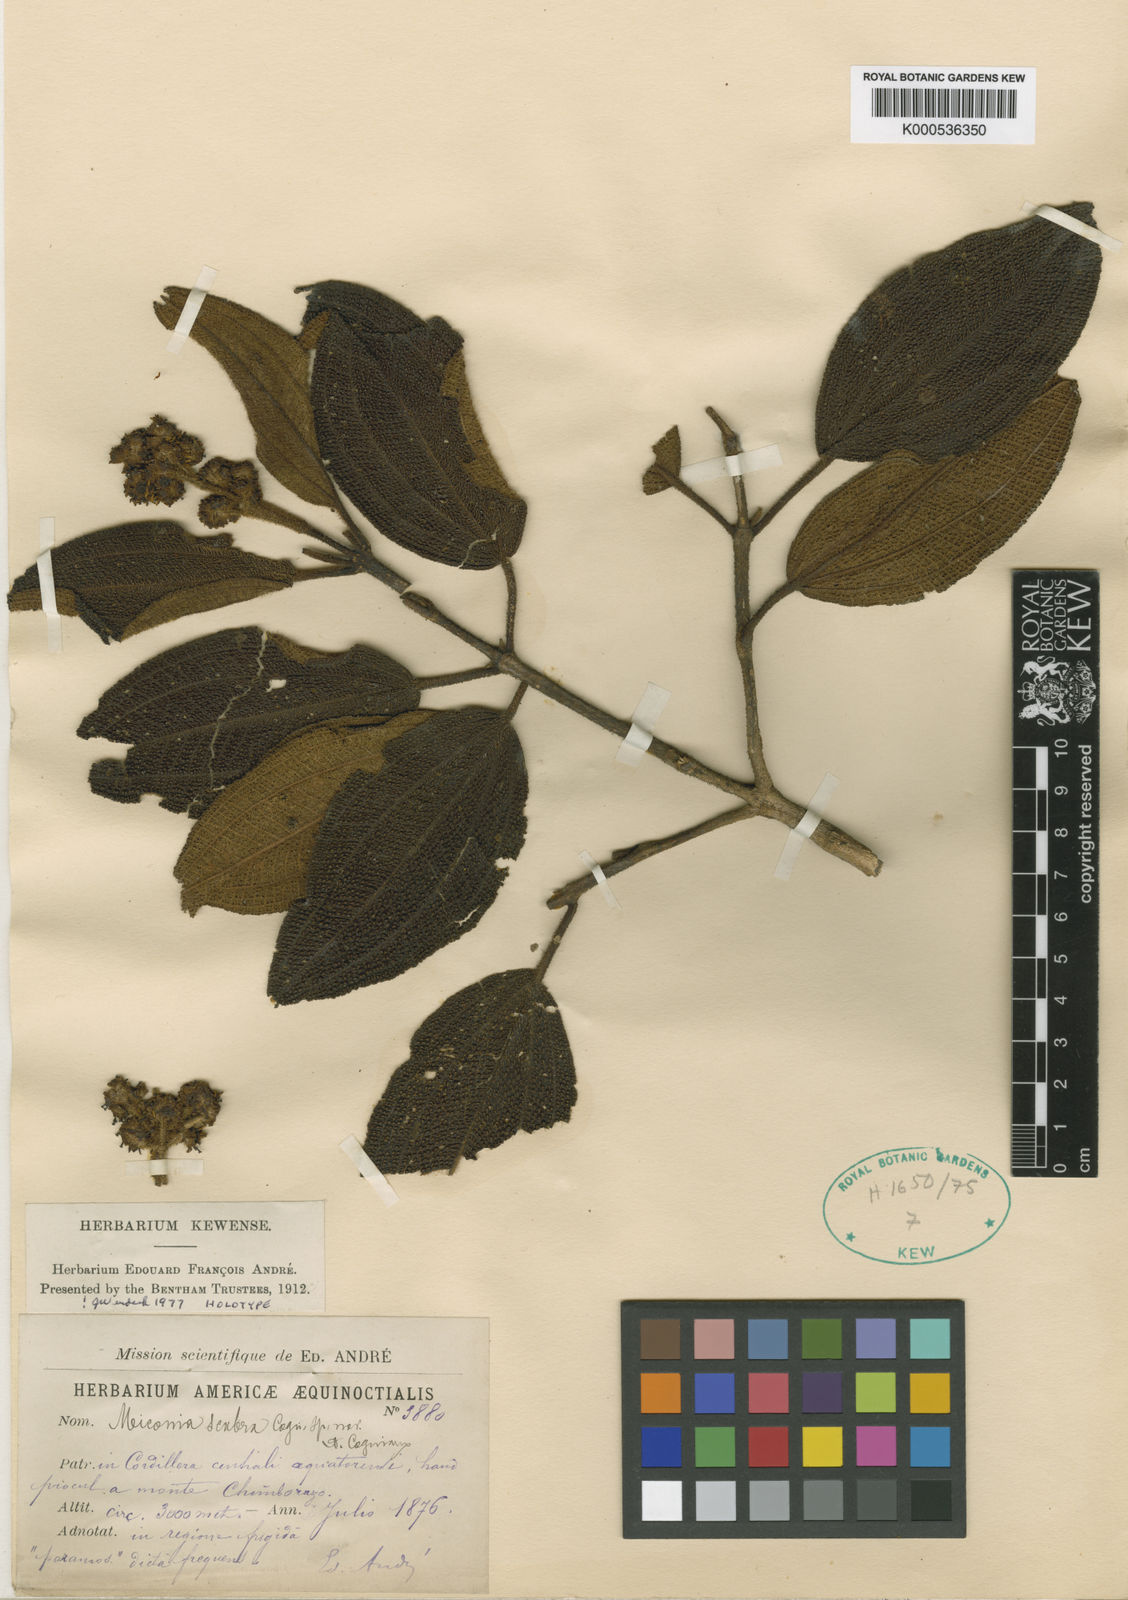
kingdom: Plantae
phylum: Tracheophyta
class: Magnoliopsida
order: Myrtales
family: Melastomataceae
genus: Miconia
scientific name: Miconia scabra
